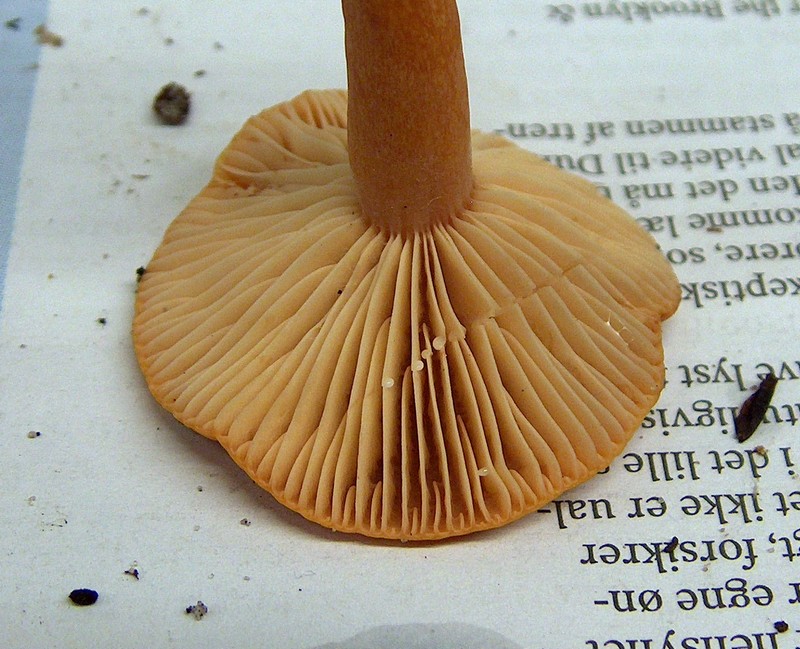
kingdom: Fungi
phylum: Basidiomycota
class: Agaricomycetes
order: Russulales
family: Russulaceae
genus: Lactarius
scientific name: Lactarius aurantiacus
